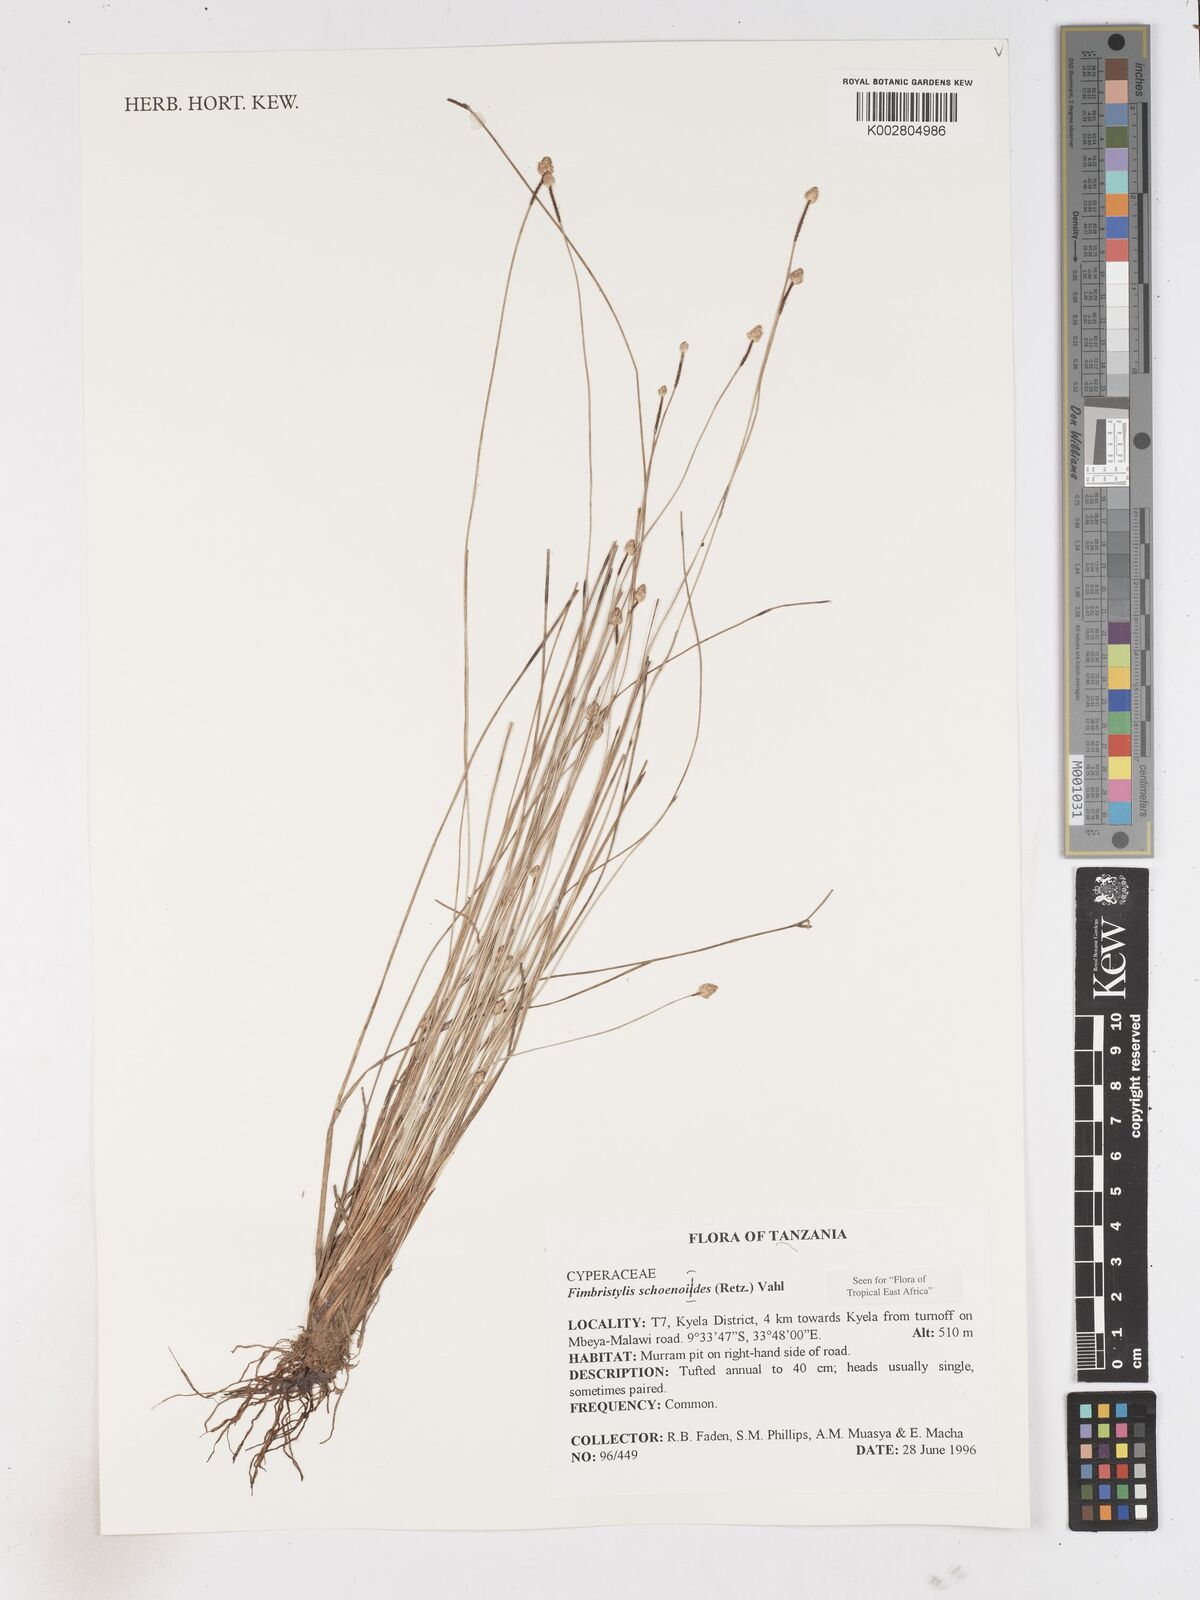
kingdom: Plantae
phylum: Tracheophyta
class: Liliopsida
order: Poales
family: Cyperaceae
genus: Fimbristylis
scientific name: Fimbristylis schoenoides
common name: Ditch fimbry
